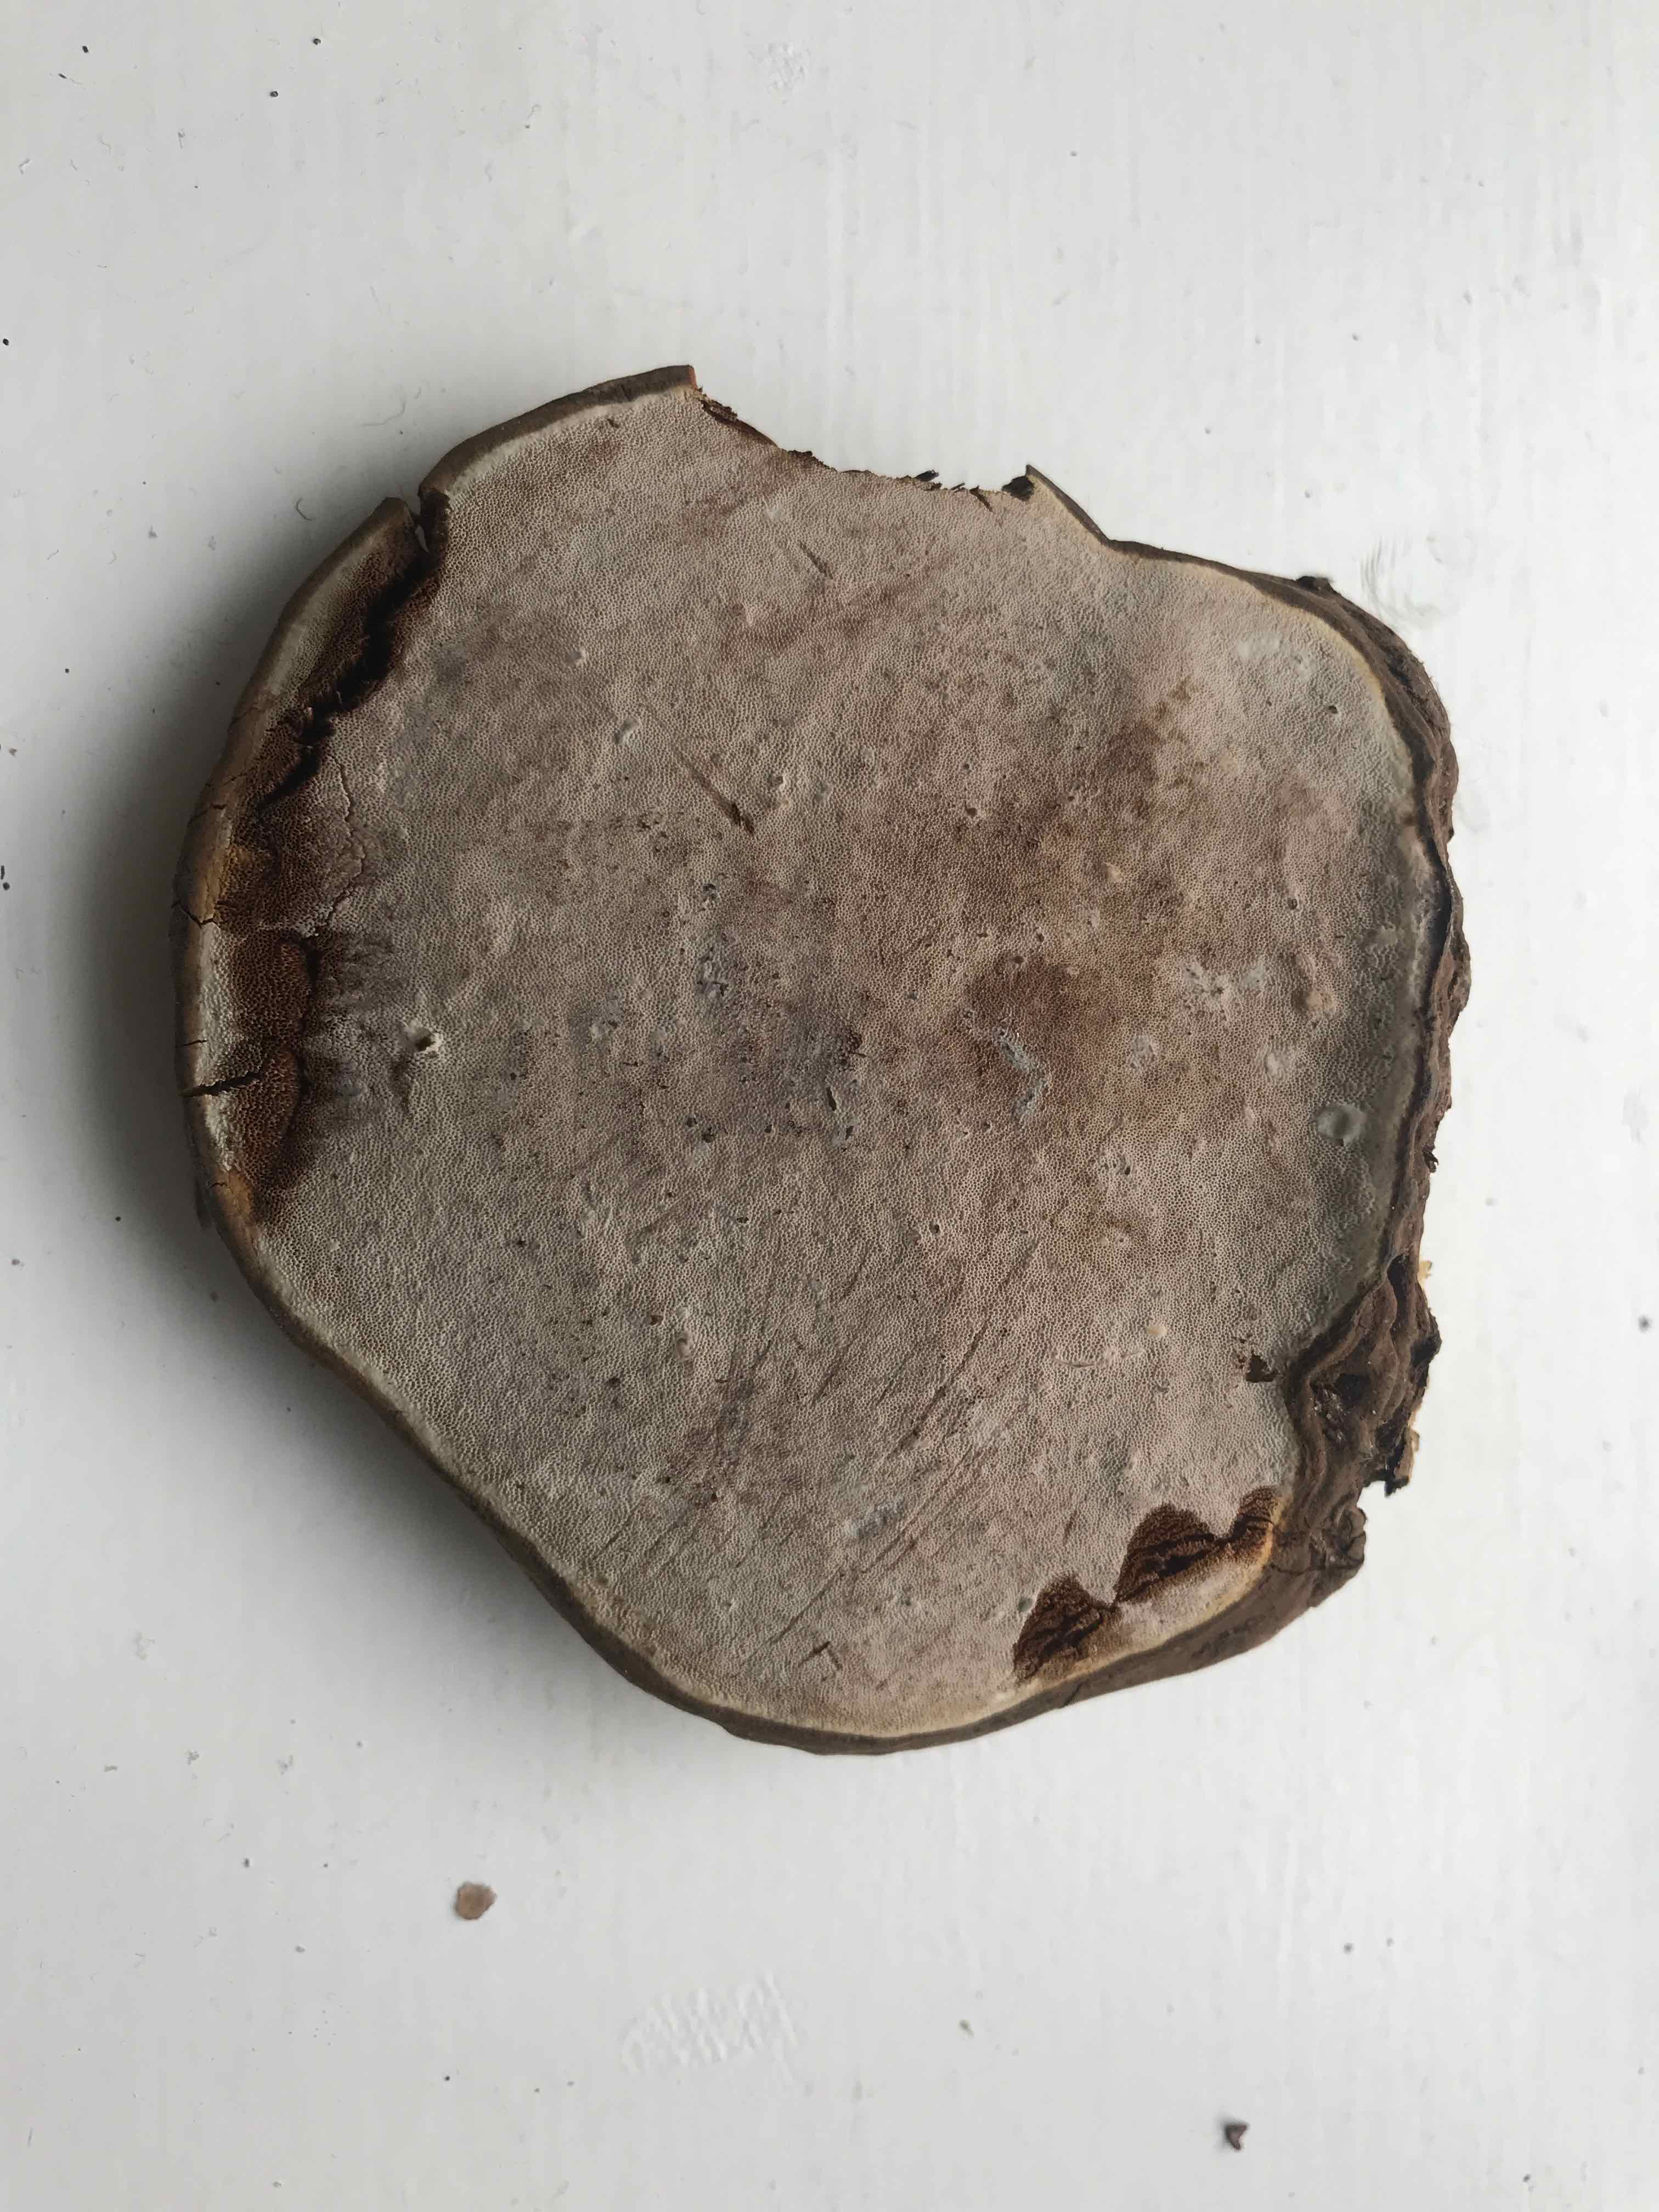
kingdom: Fungi
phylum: Basidiomycota
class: Agaricomycetes
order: Polyporales
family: Polyporaceae
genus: Ganoderma
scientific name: Ganoderma applanatum
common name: flad lakporesvamp
